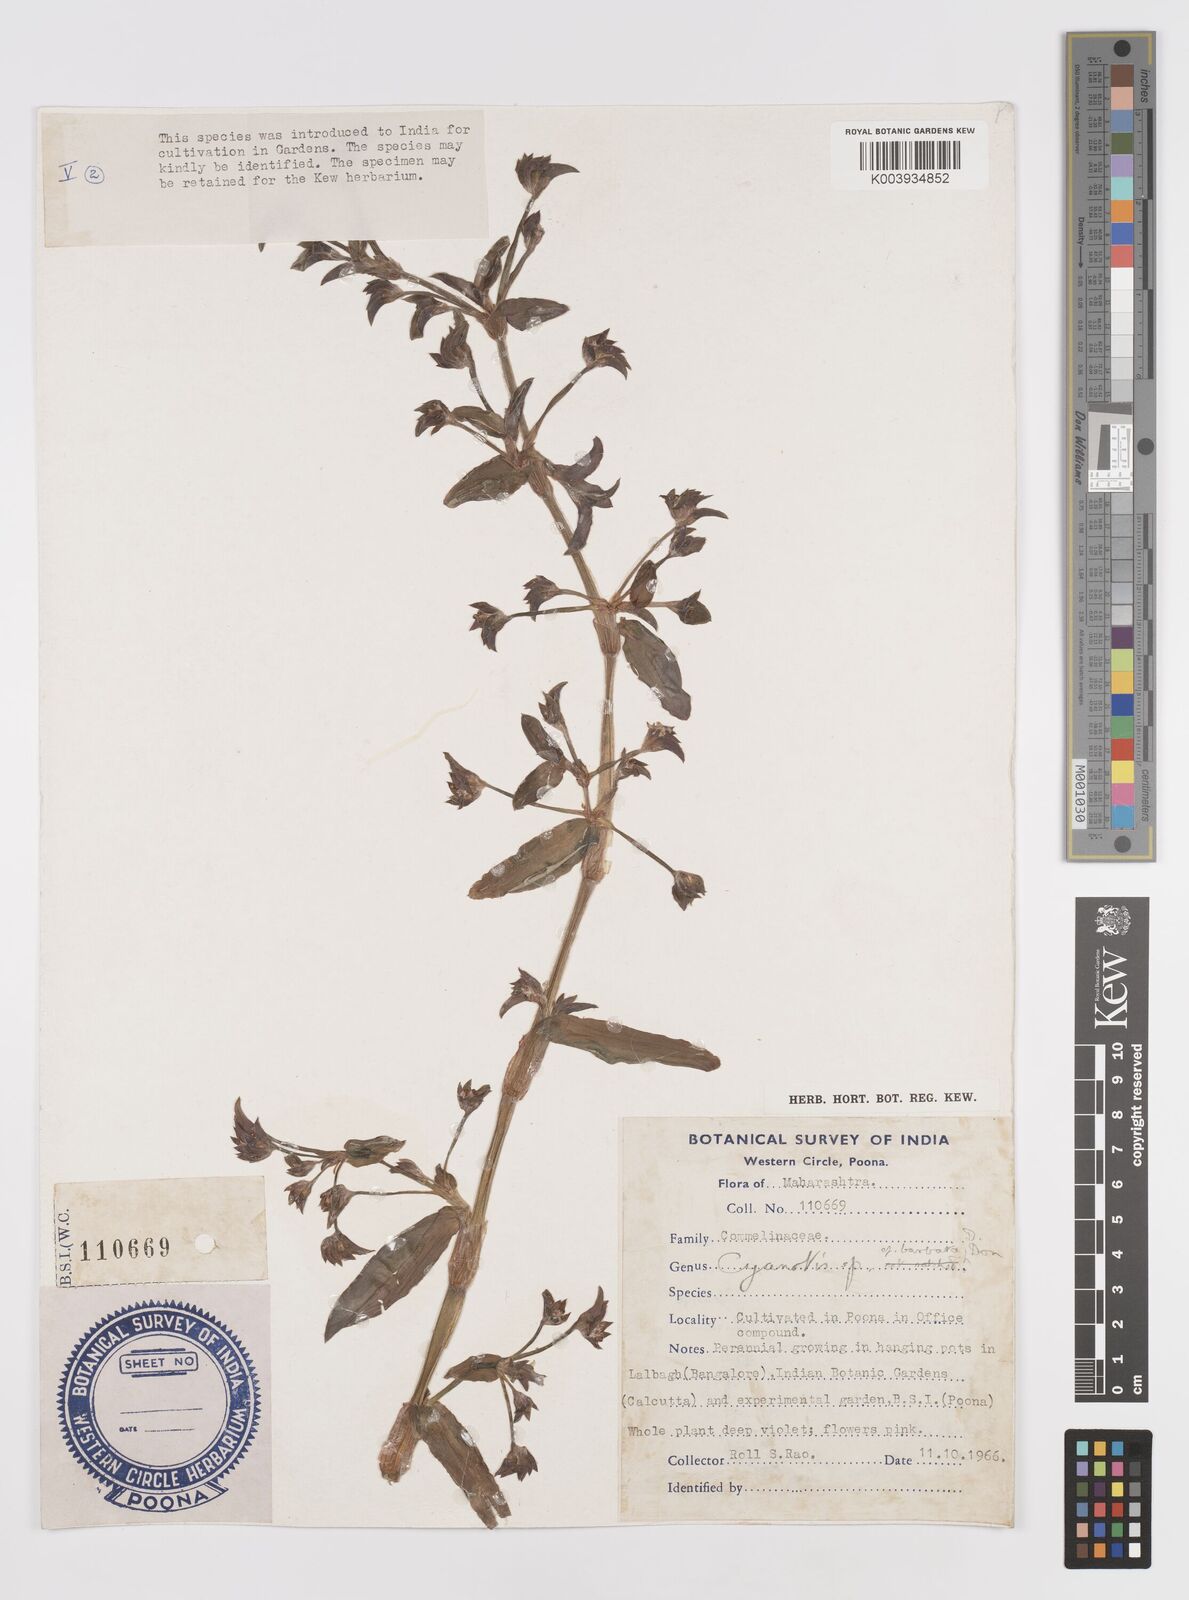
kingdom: Plantae
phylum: Tracheophyta
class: Liliopsida
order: Commelinales
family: Commelinaceae
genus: Cyanotis
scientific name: Cyanotis
